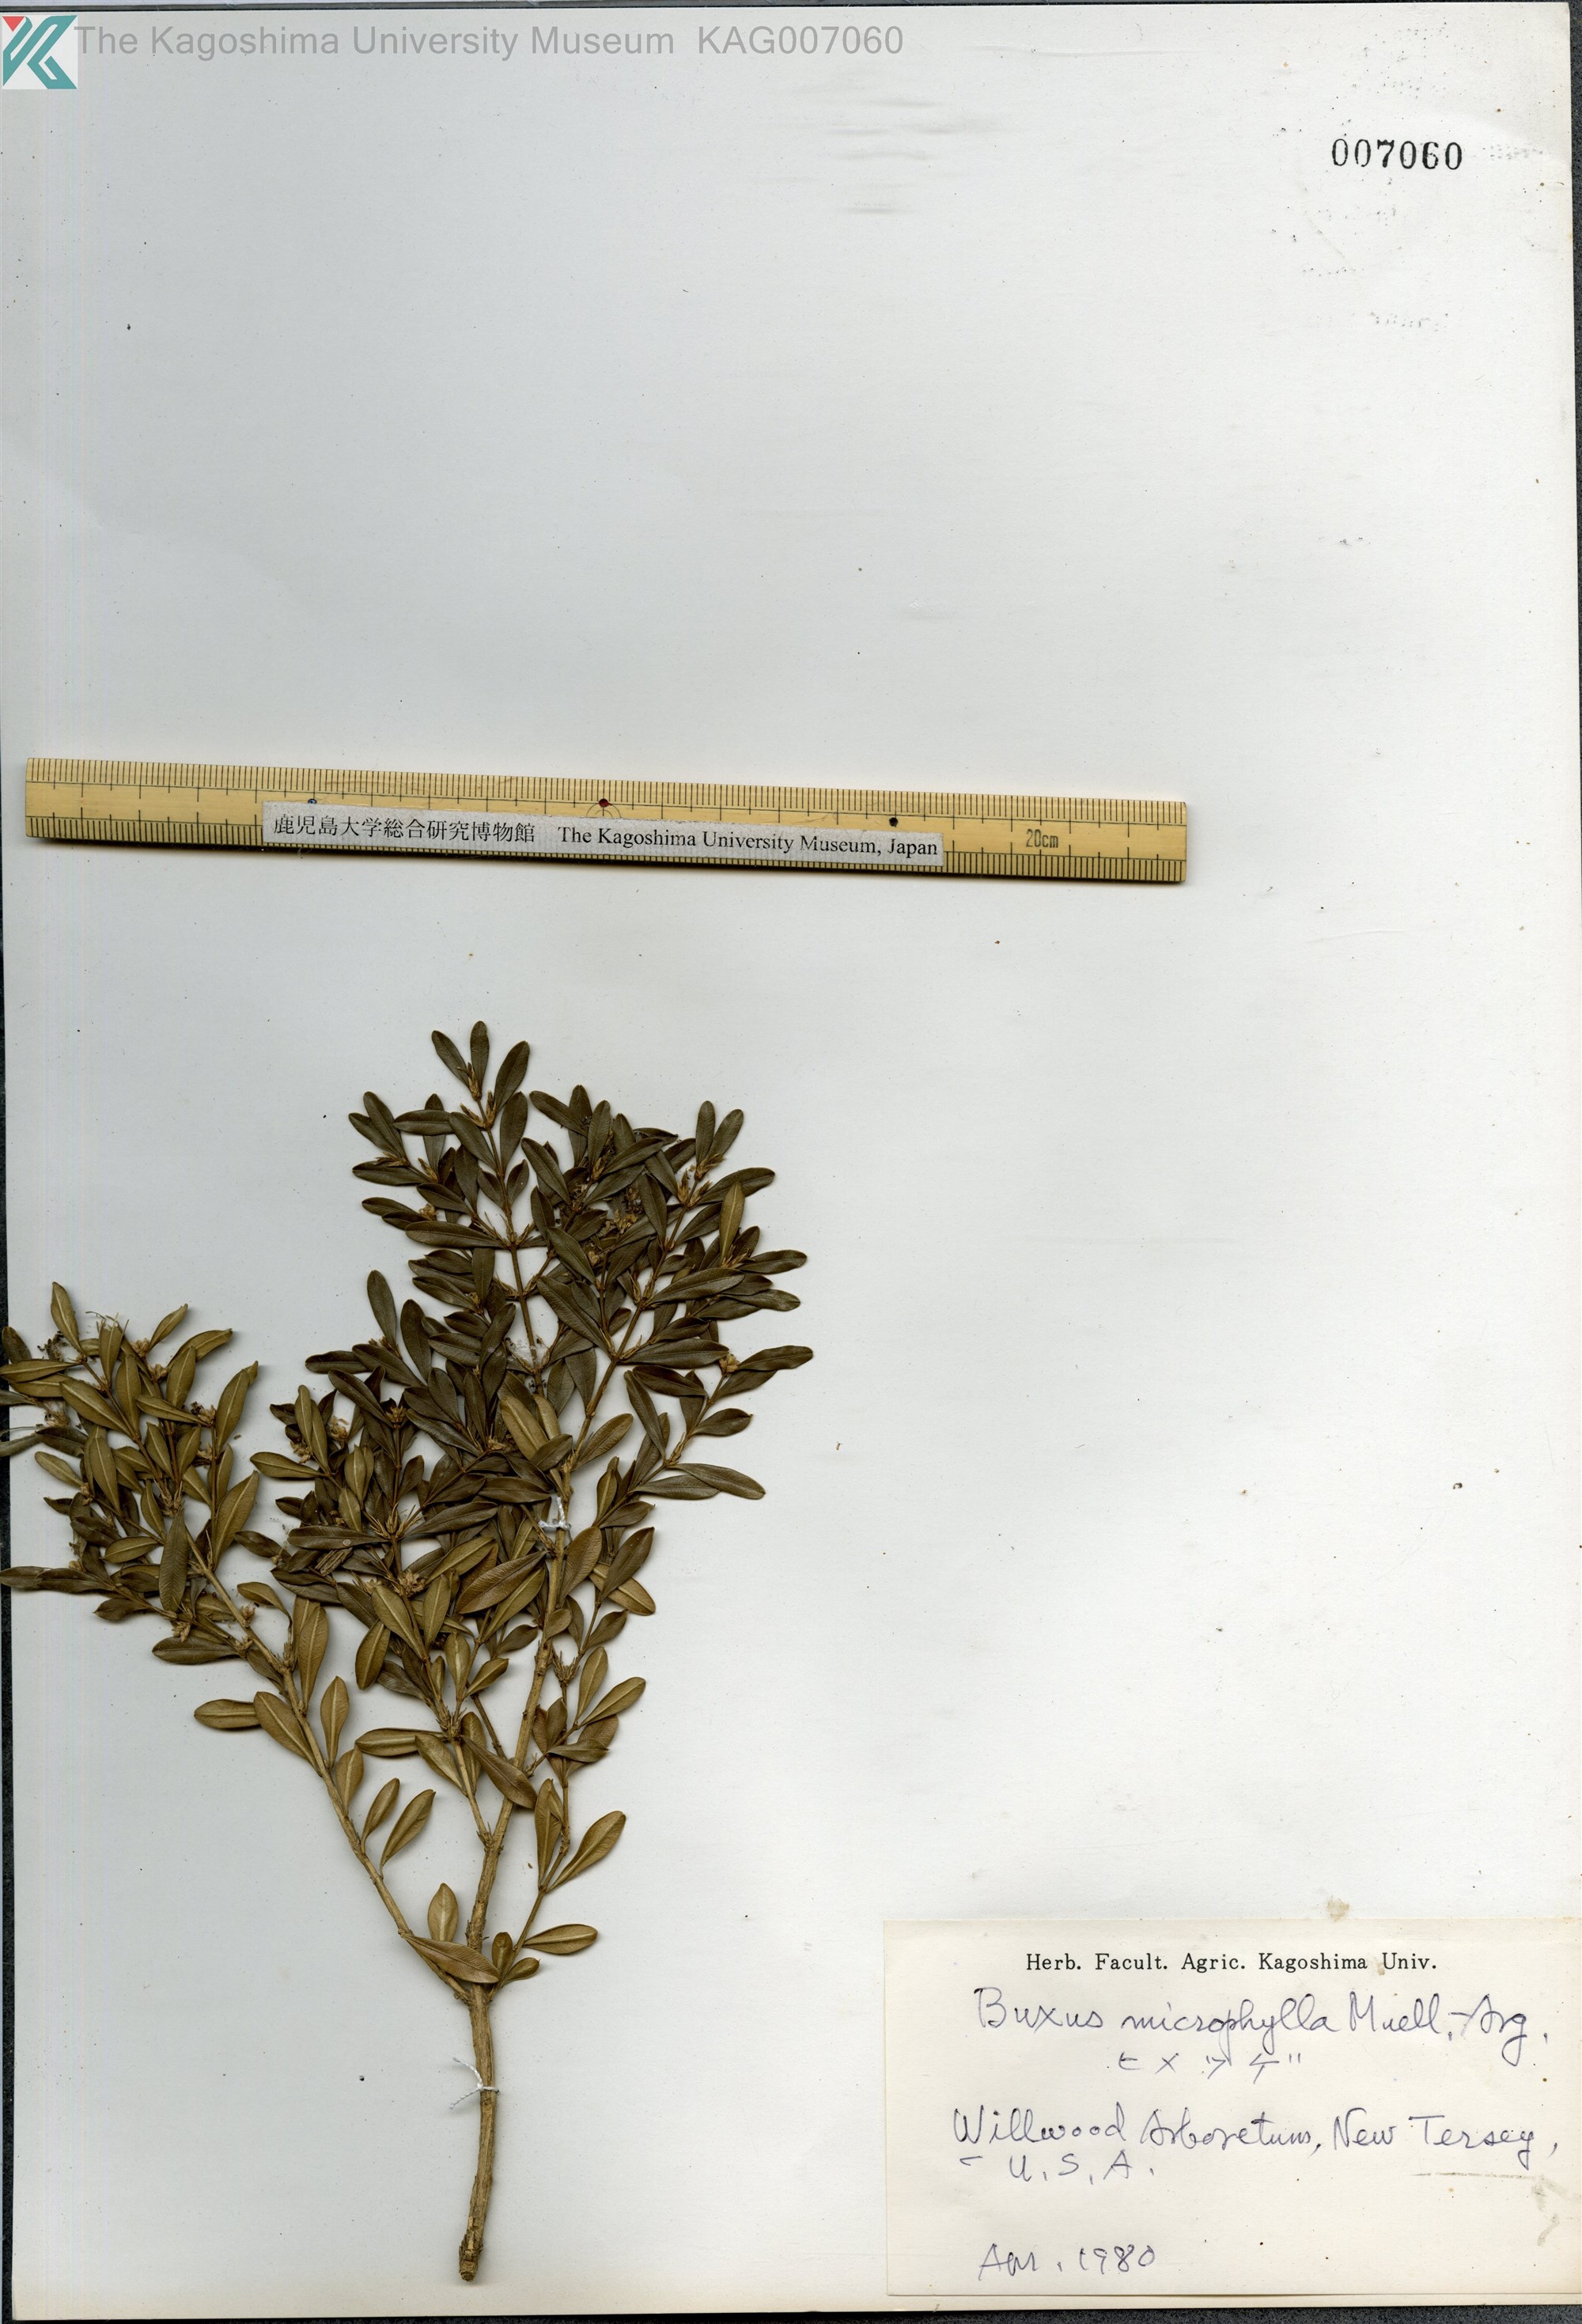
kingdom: Plantae
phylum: Tracheophyta
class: Magnoliopsida
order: Buxales
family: Buxaceae
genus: Buxus
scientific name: Buxus sinica
